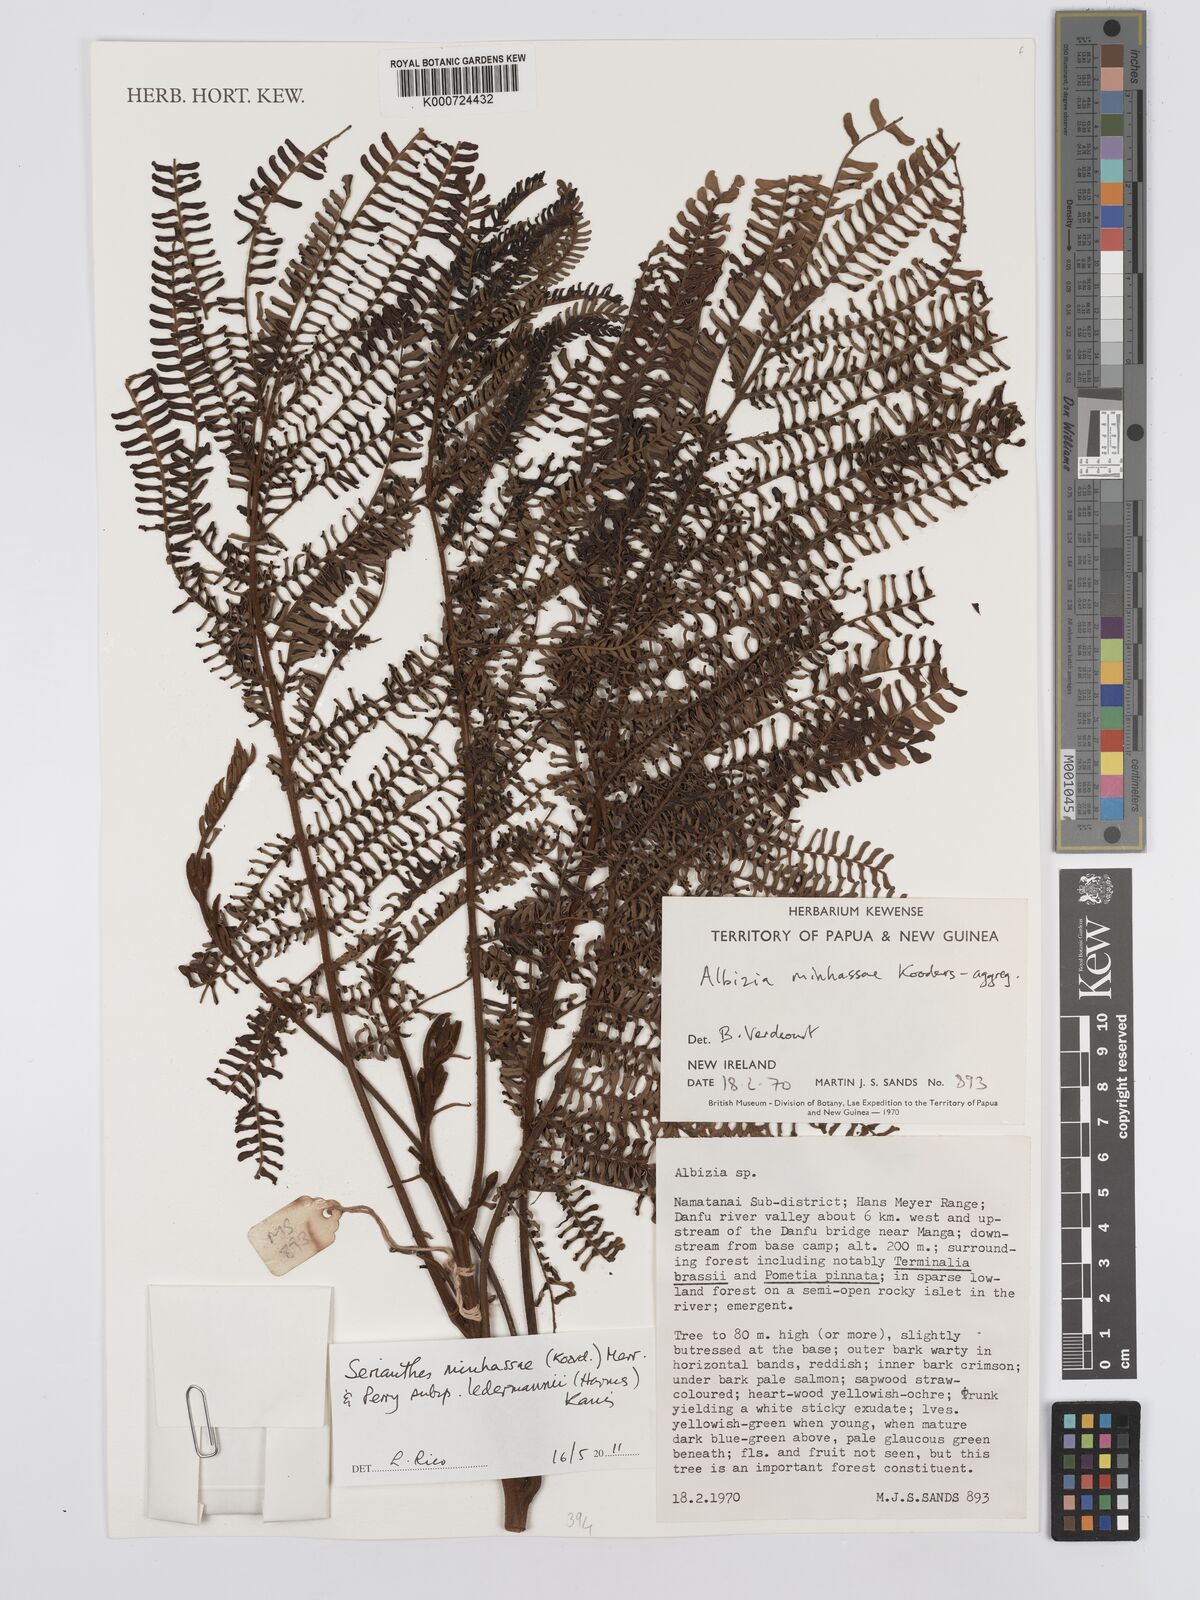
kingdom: Plantae
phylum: Tracheophyta
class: Magnoliopsida
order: Fabales
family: Fabaceae
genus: Serianthes
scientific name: Serianthes minahassae
